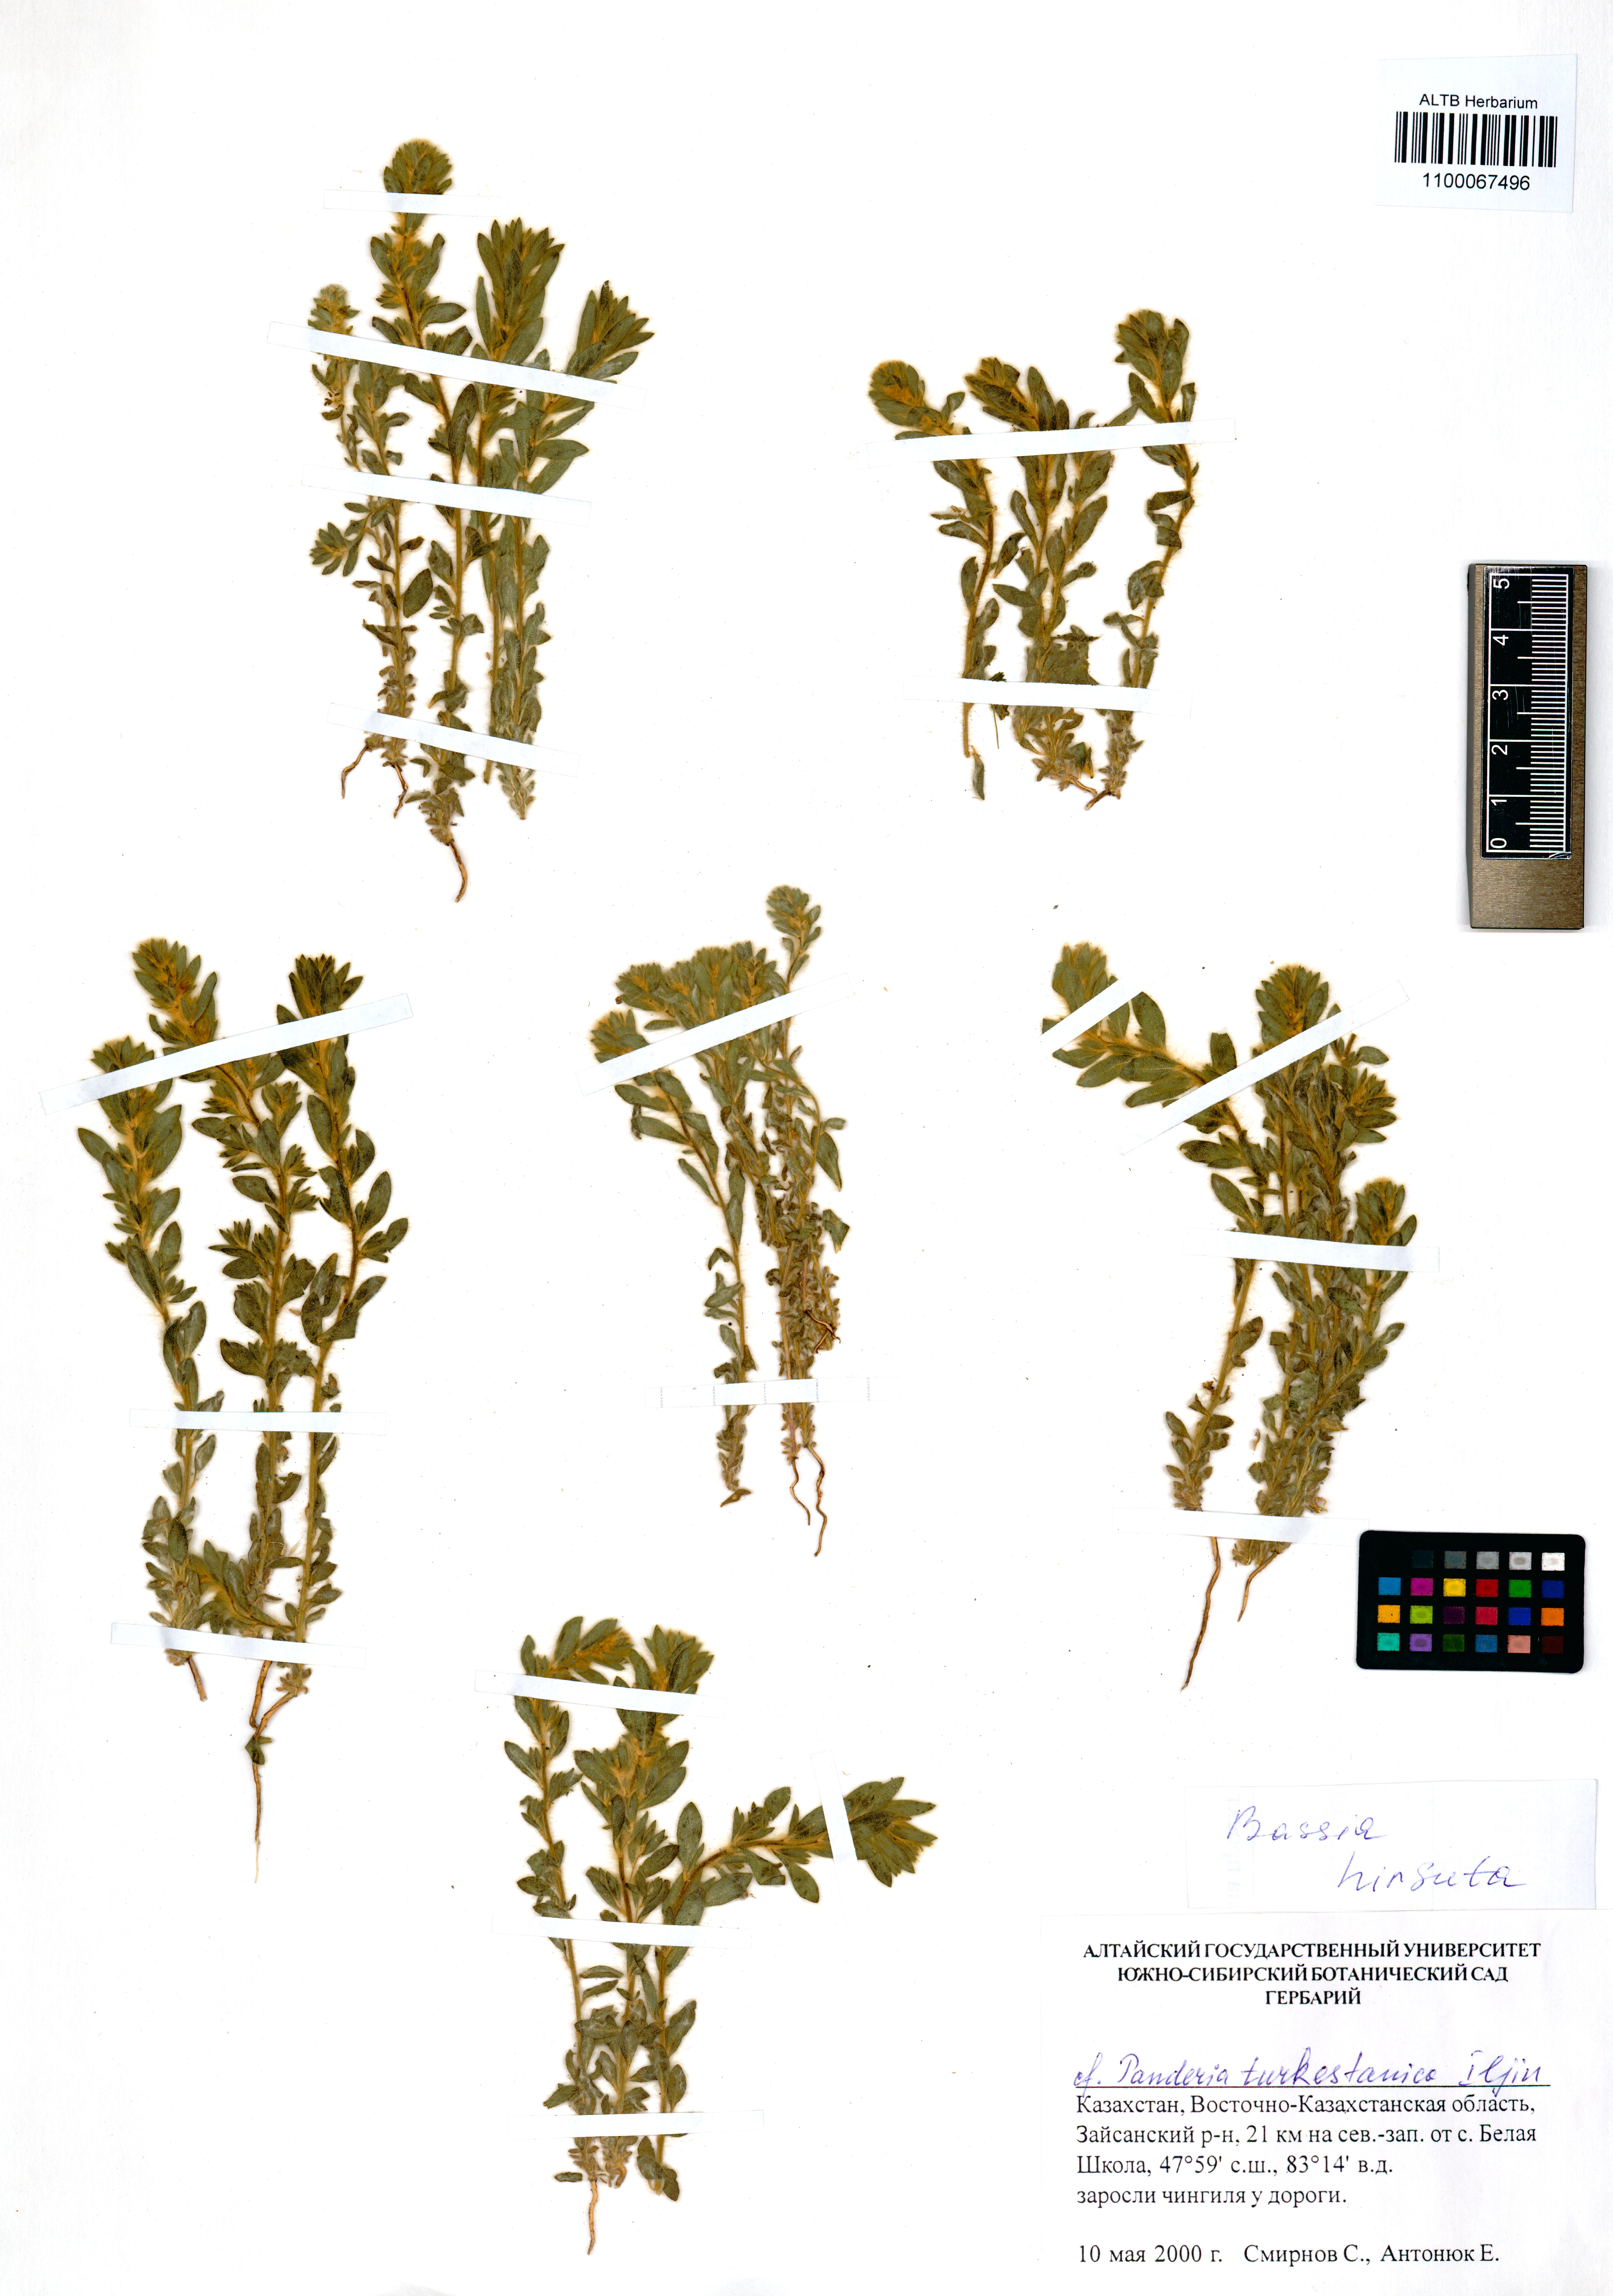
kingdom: Plantae
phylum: Tracheophyta
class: Magnoliopsida
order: Caryophyllales
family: Amaranthaceae
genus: Spirobassia
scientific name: Spirobassia hirsuta
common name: Hairy smotherweed
